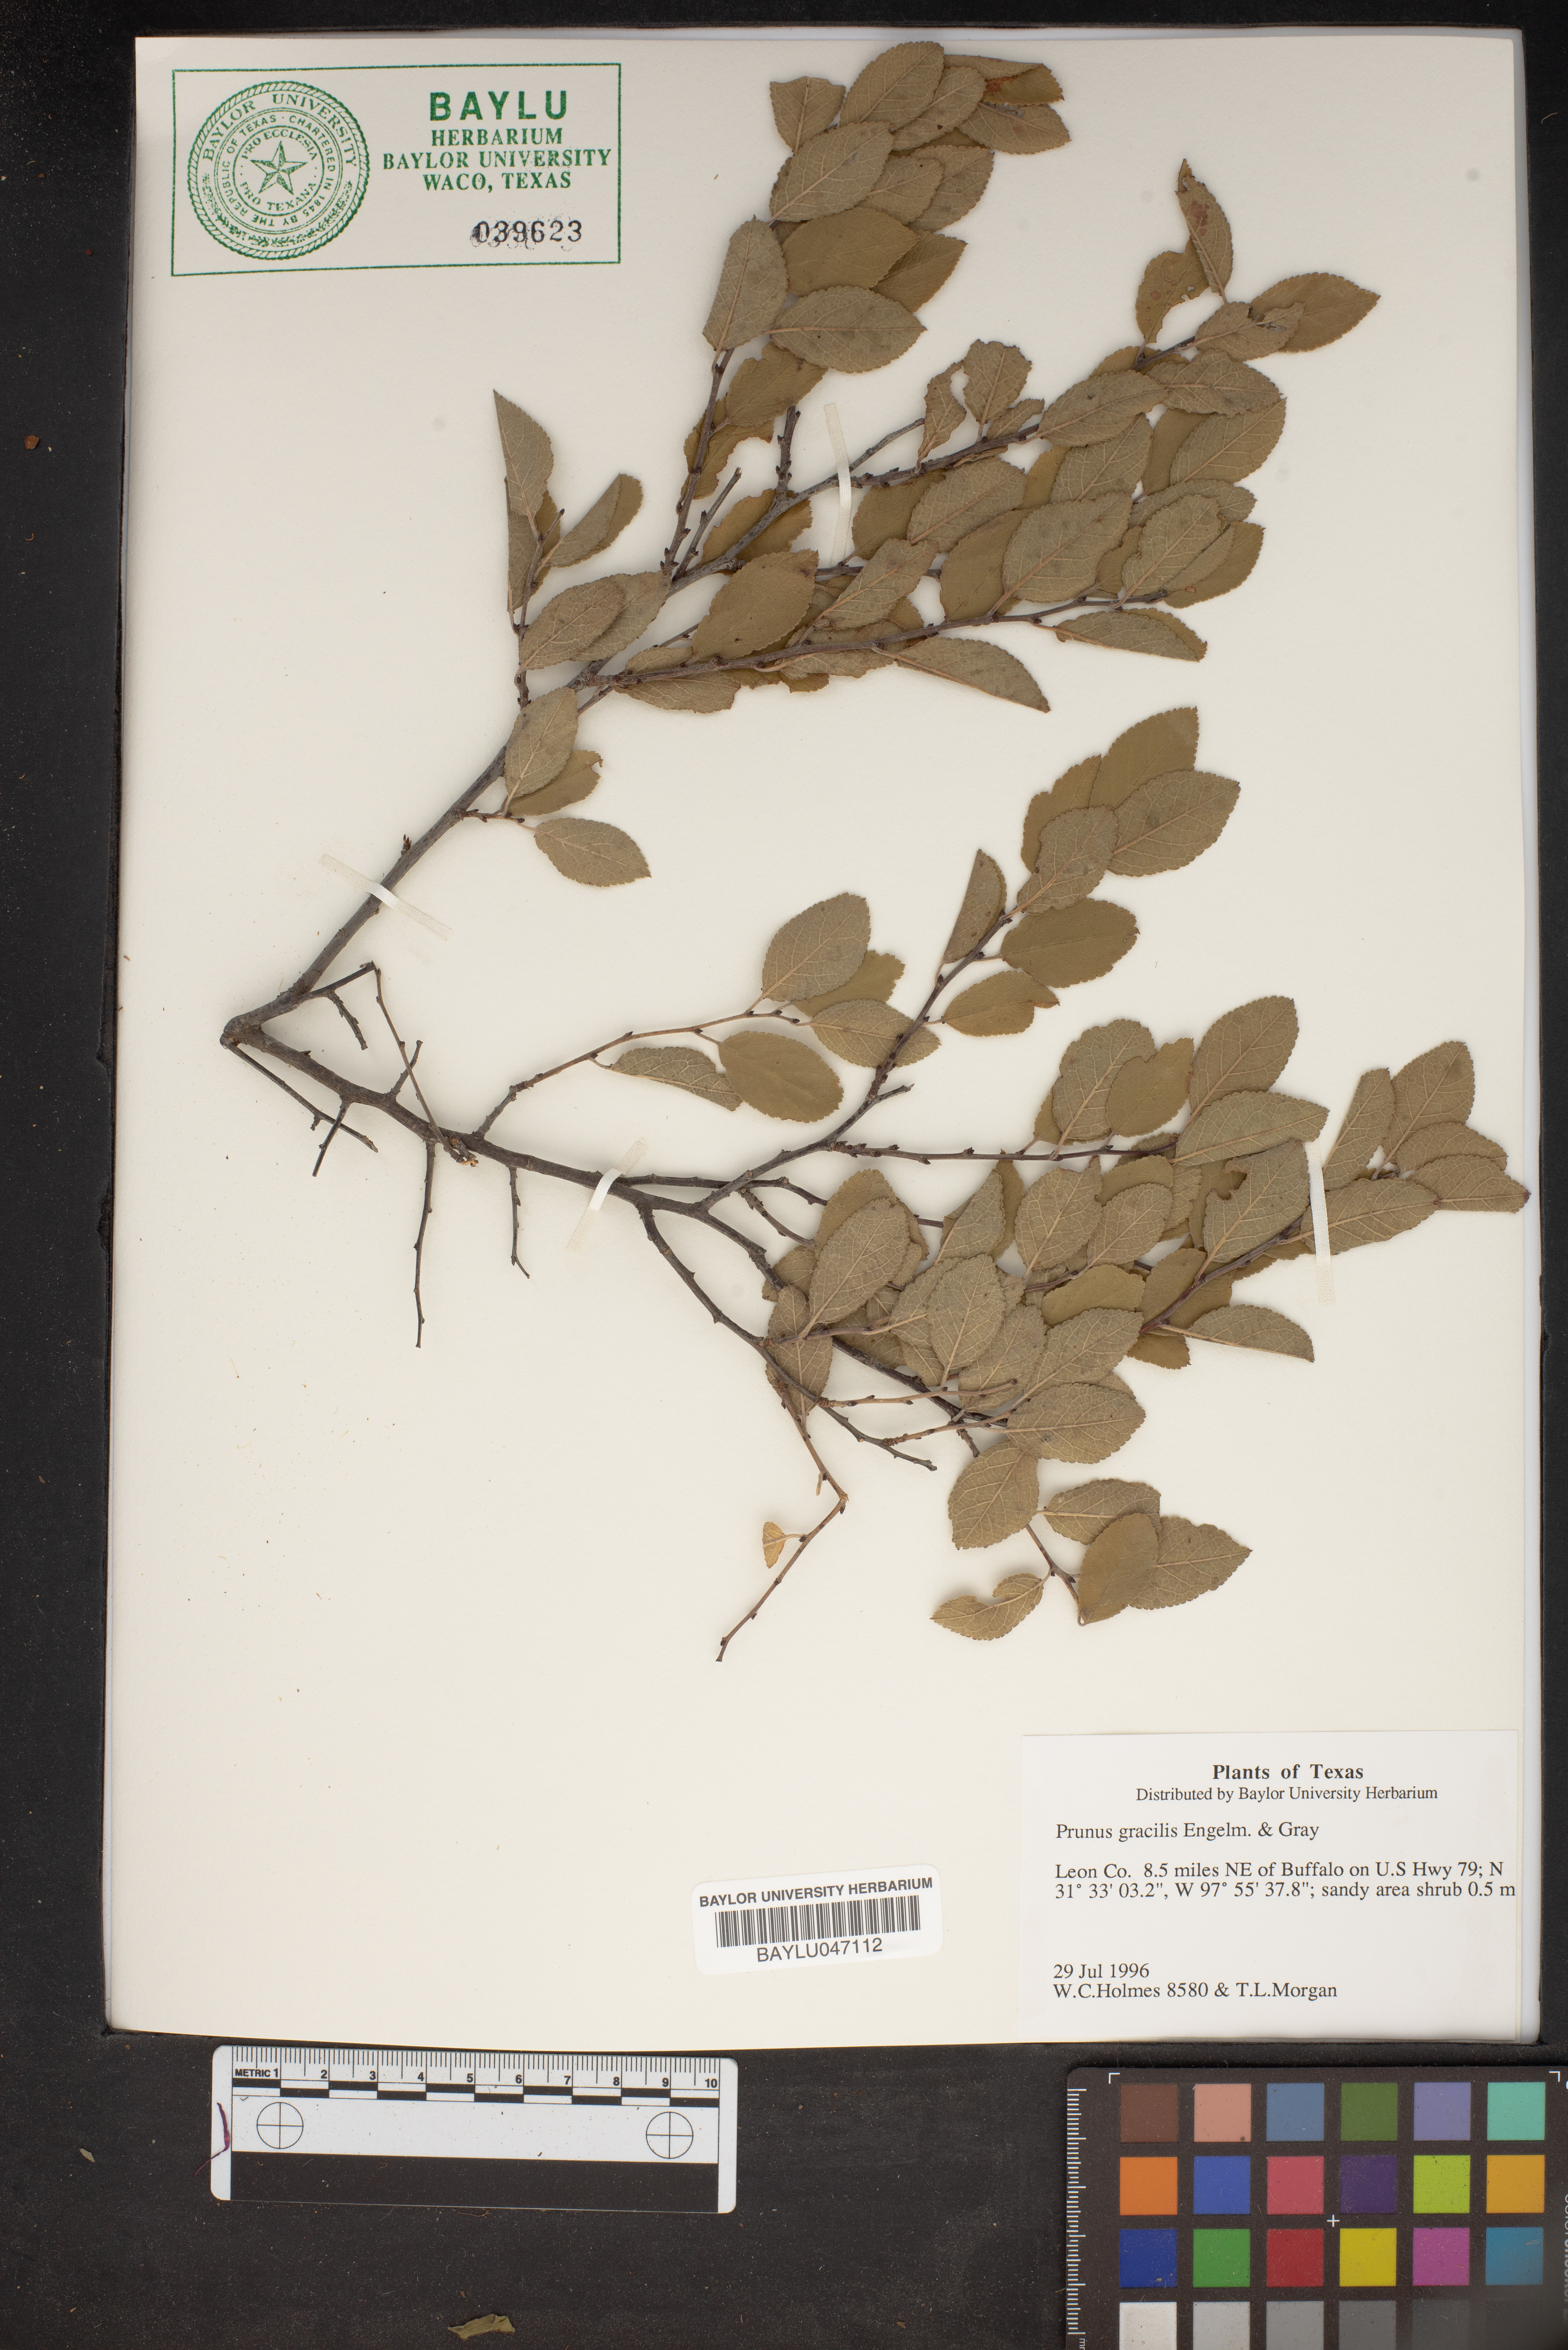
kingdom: Plantae
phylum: Tracheophyta
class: Magnoliopsida
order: Rosales
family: Rosaceae
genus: Prunus
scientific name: Prunus gracilis
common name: Oklahoma plum
